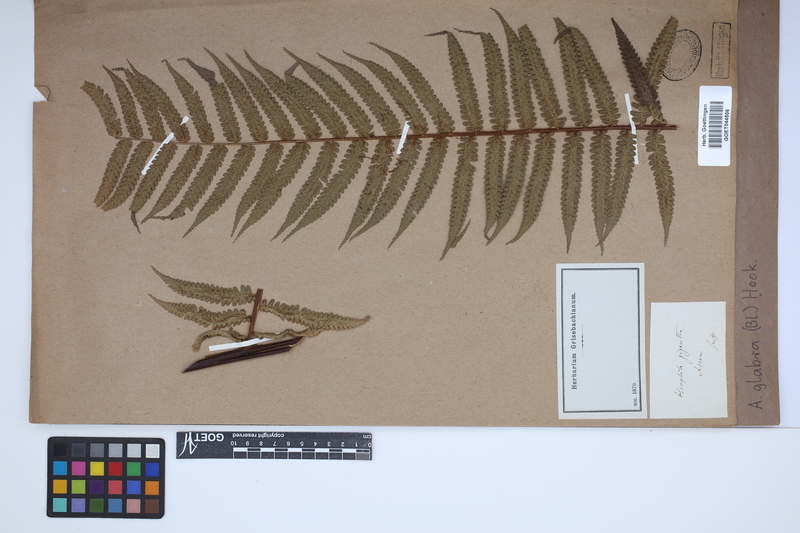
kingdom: Plantae
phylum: Tracheophyta
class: Polypodiopsida
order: Cyatheales
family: Cyatheaceae
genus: Gymnosphaera
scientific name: Gymnosphaera glabra
